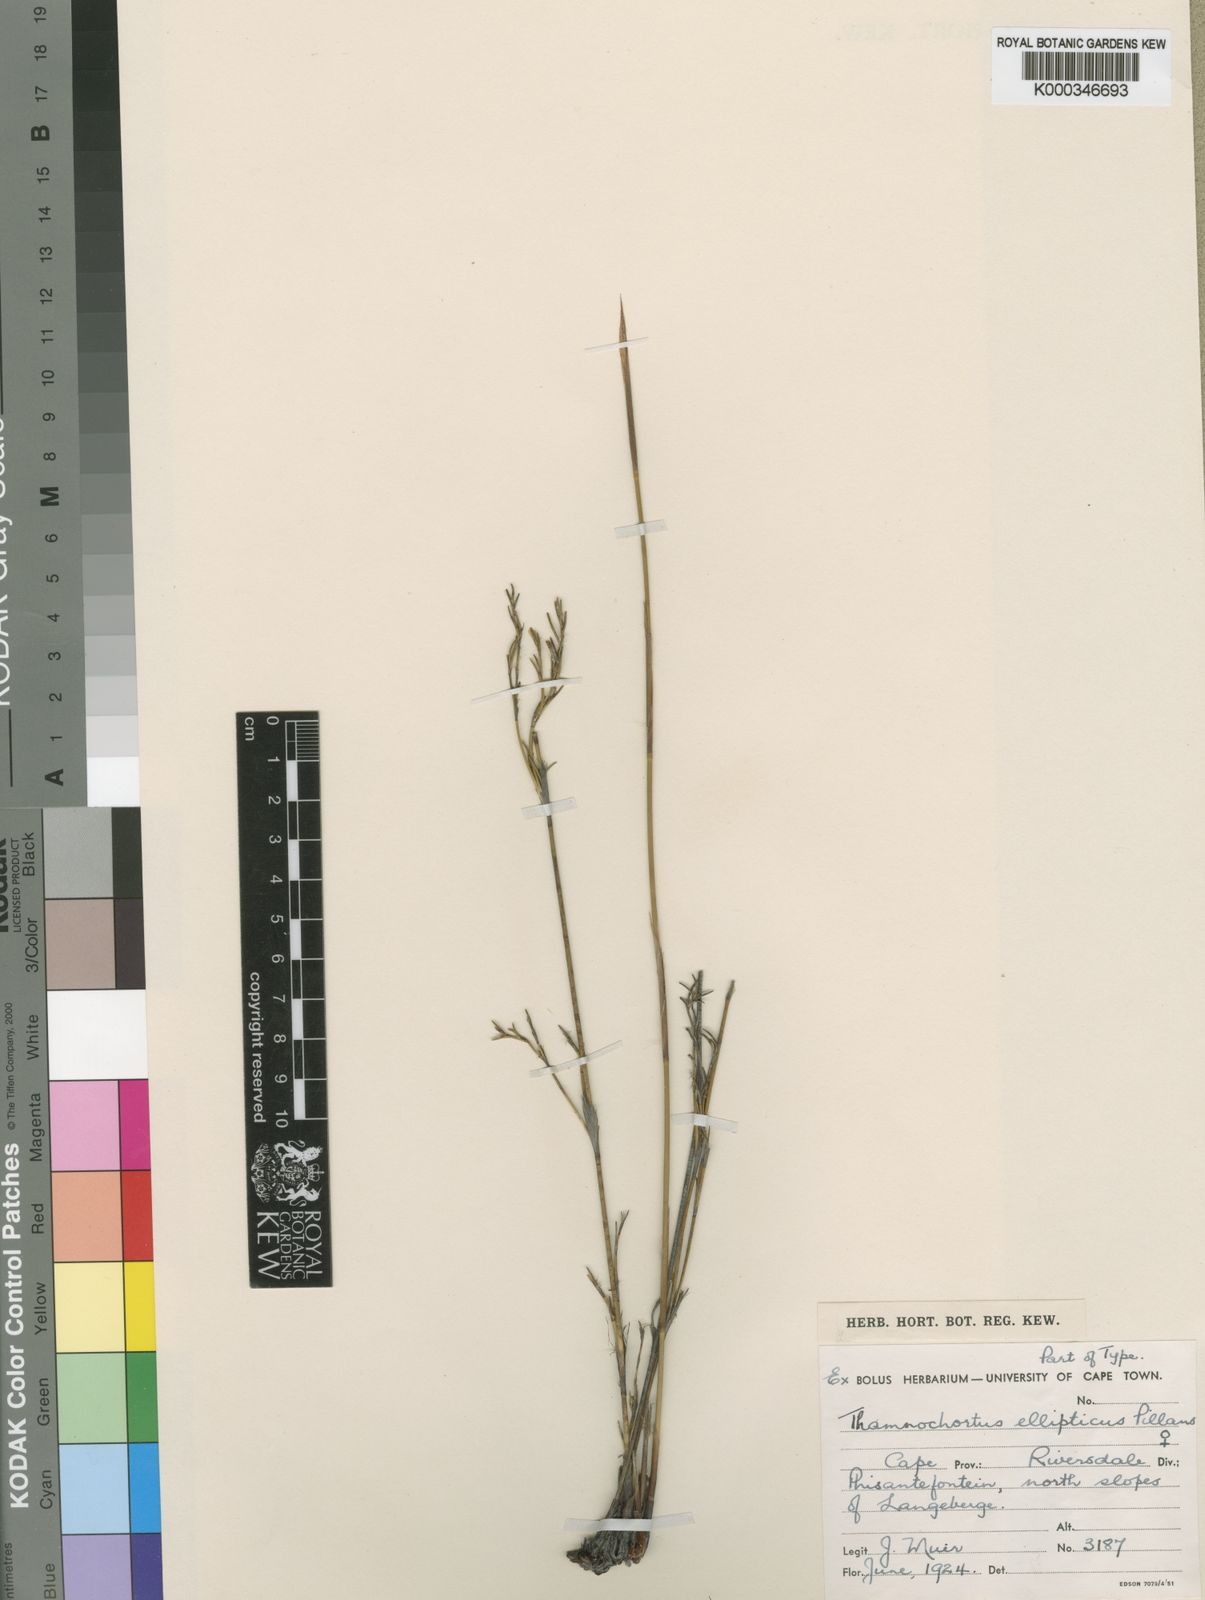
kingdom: Plantae
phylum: Tracheophyta
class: Liliopsida
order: Poales
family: Restionaceae
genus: Thamnochortus
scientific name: Thamnochortus ellipticus
